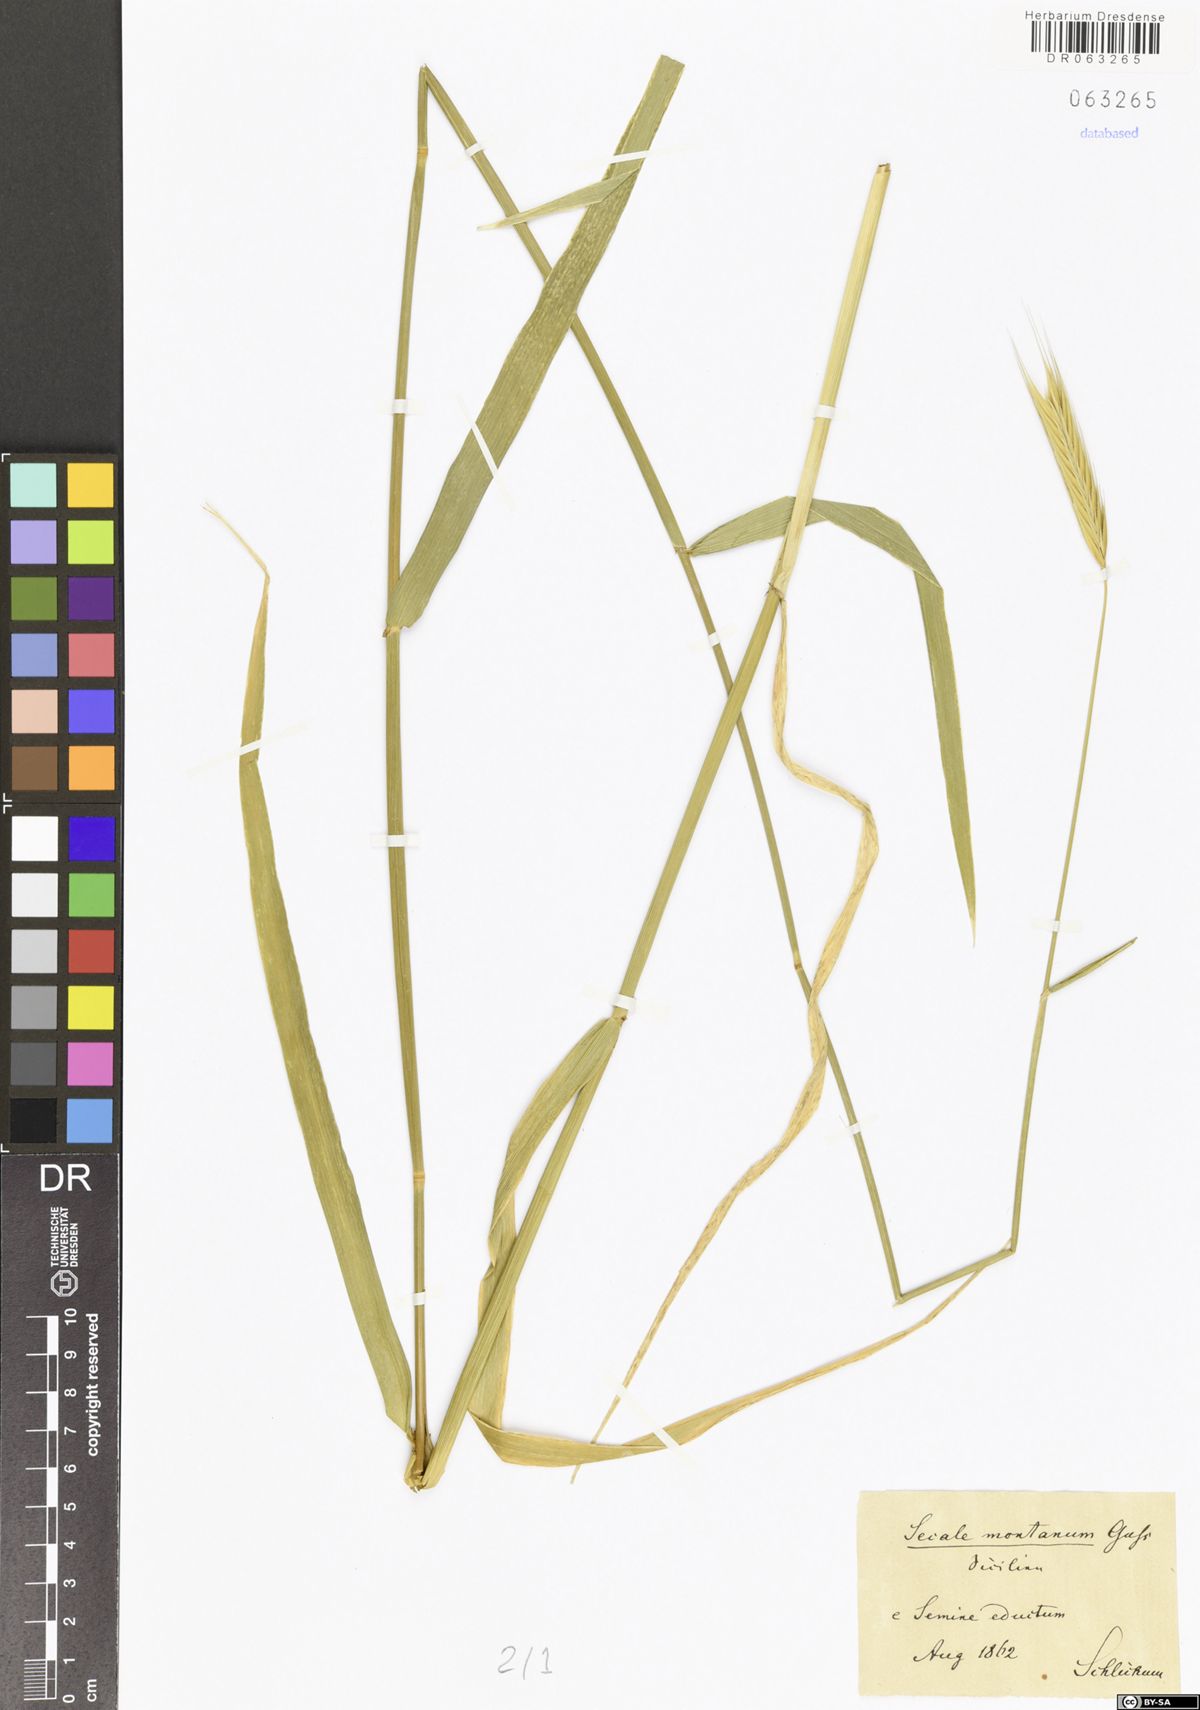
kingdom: Plantae
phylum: Tracheophyta
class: Liliopsida
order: Poales
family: Poaceae
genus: Secale
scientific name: Secale strictum
